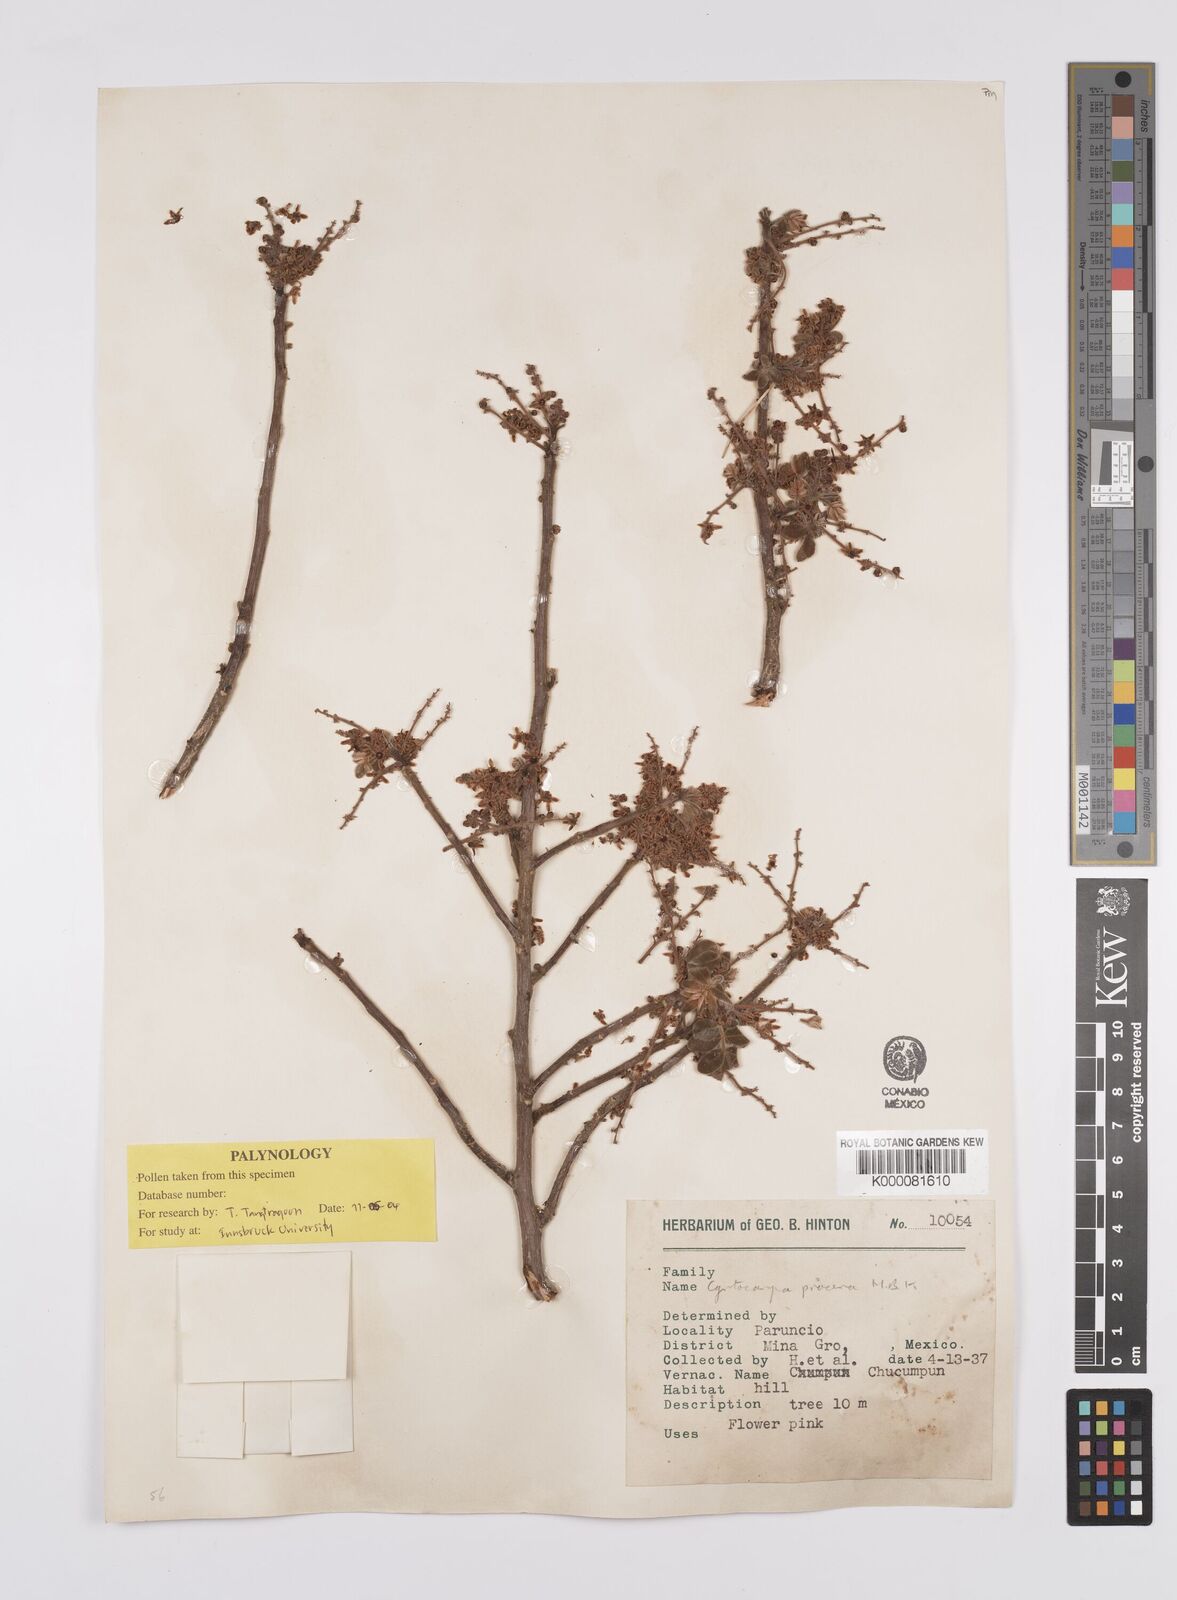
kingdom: Plantae
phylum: Tracheophyta
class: Magnoliopsida
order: Sapindales
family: Anacardiaceae
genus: Cyrtocarpa
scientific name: Cyrtocarpa procera
